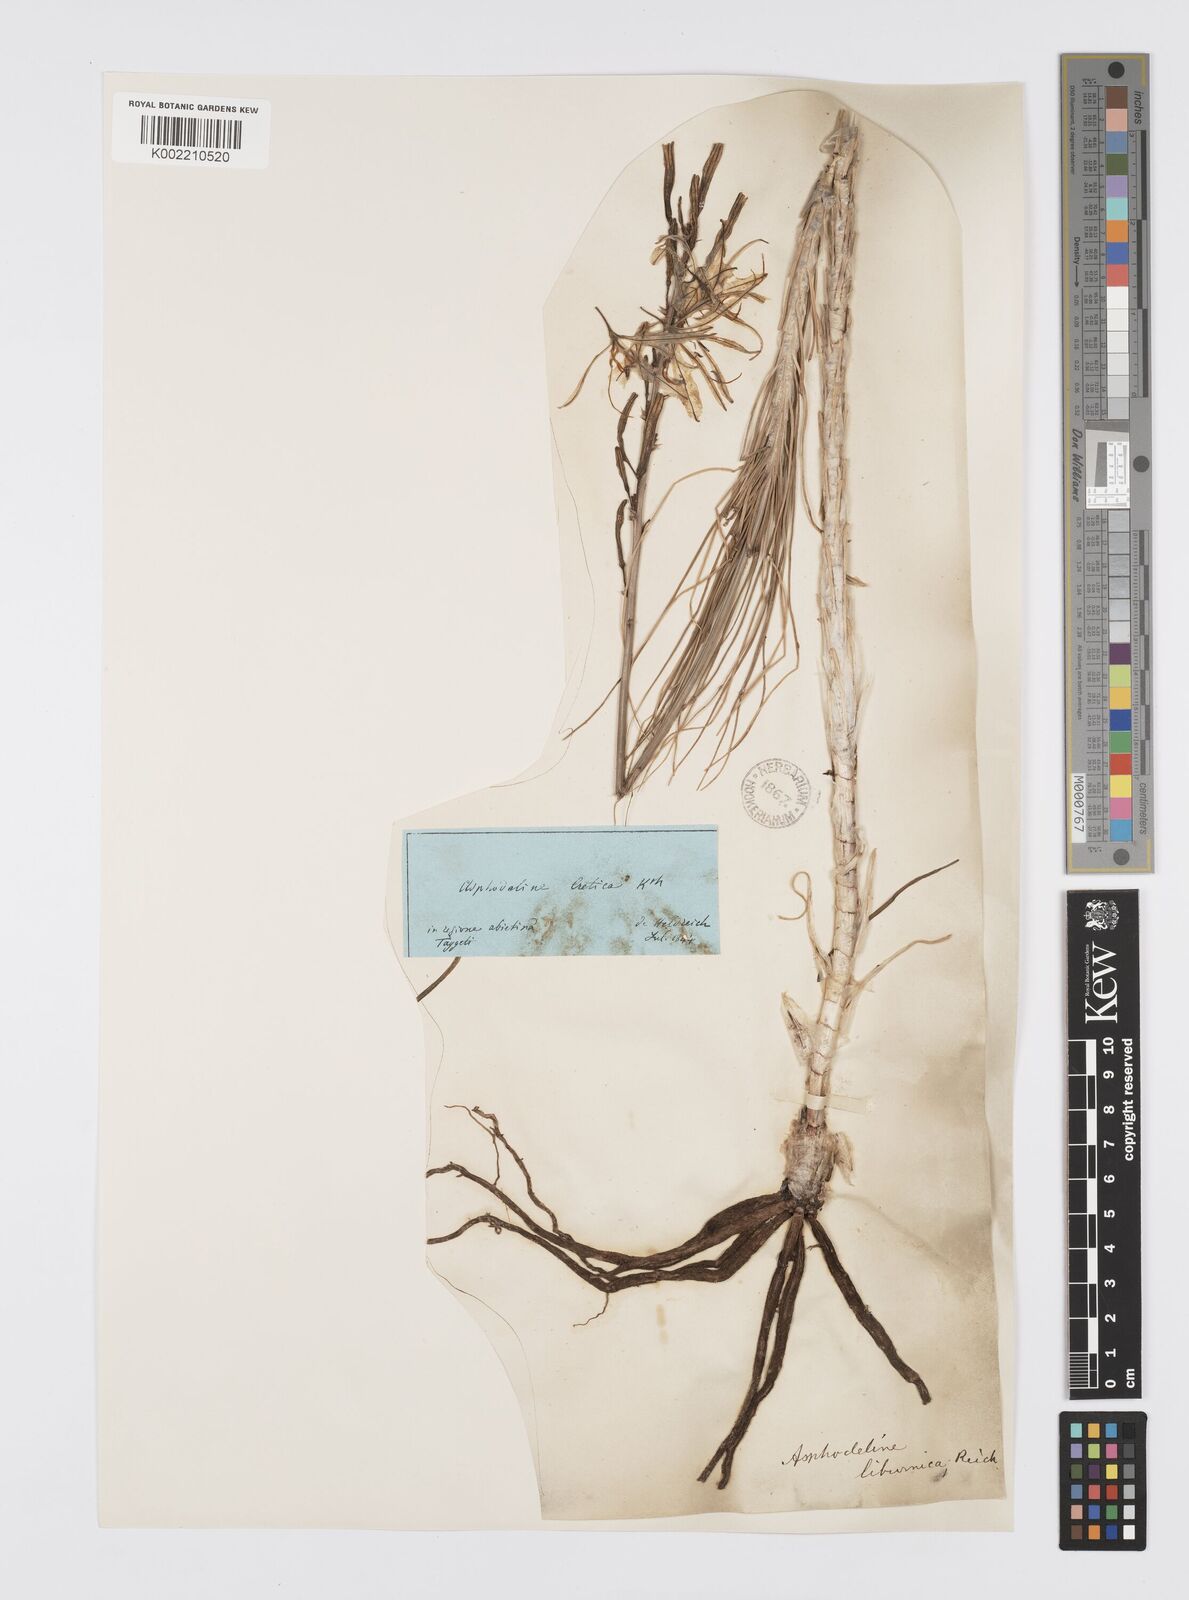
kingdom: Plantae
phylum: Tracheophyta
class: Liliopsida
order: Asparagales
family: Asphodelaceae
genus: Asphodeline
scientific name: Asphodeline liburnica
